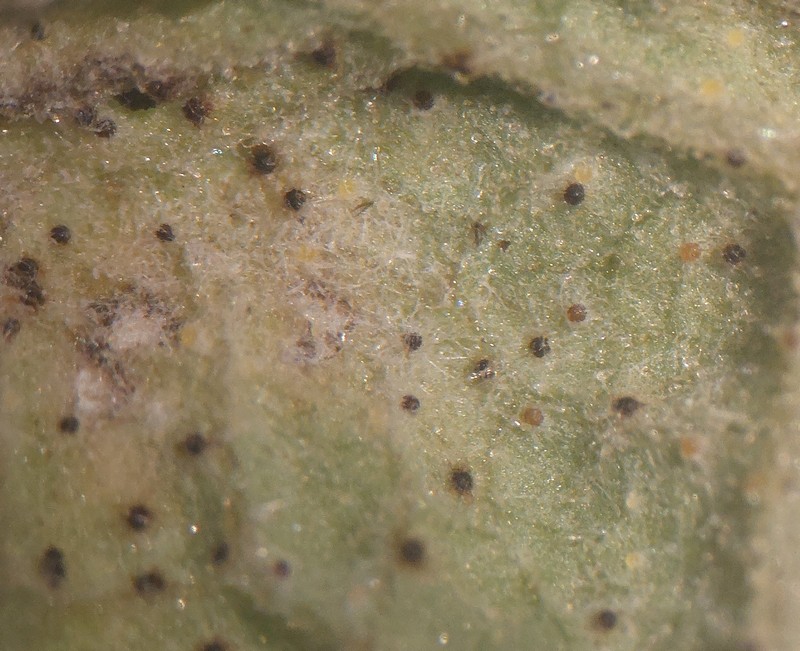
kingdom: Fungi
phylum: Ascomycota
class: Leotiomycetes
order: Helotiales
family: Erysiphaceae
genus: Golovinomyces
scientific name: Golovinomyces inulae
